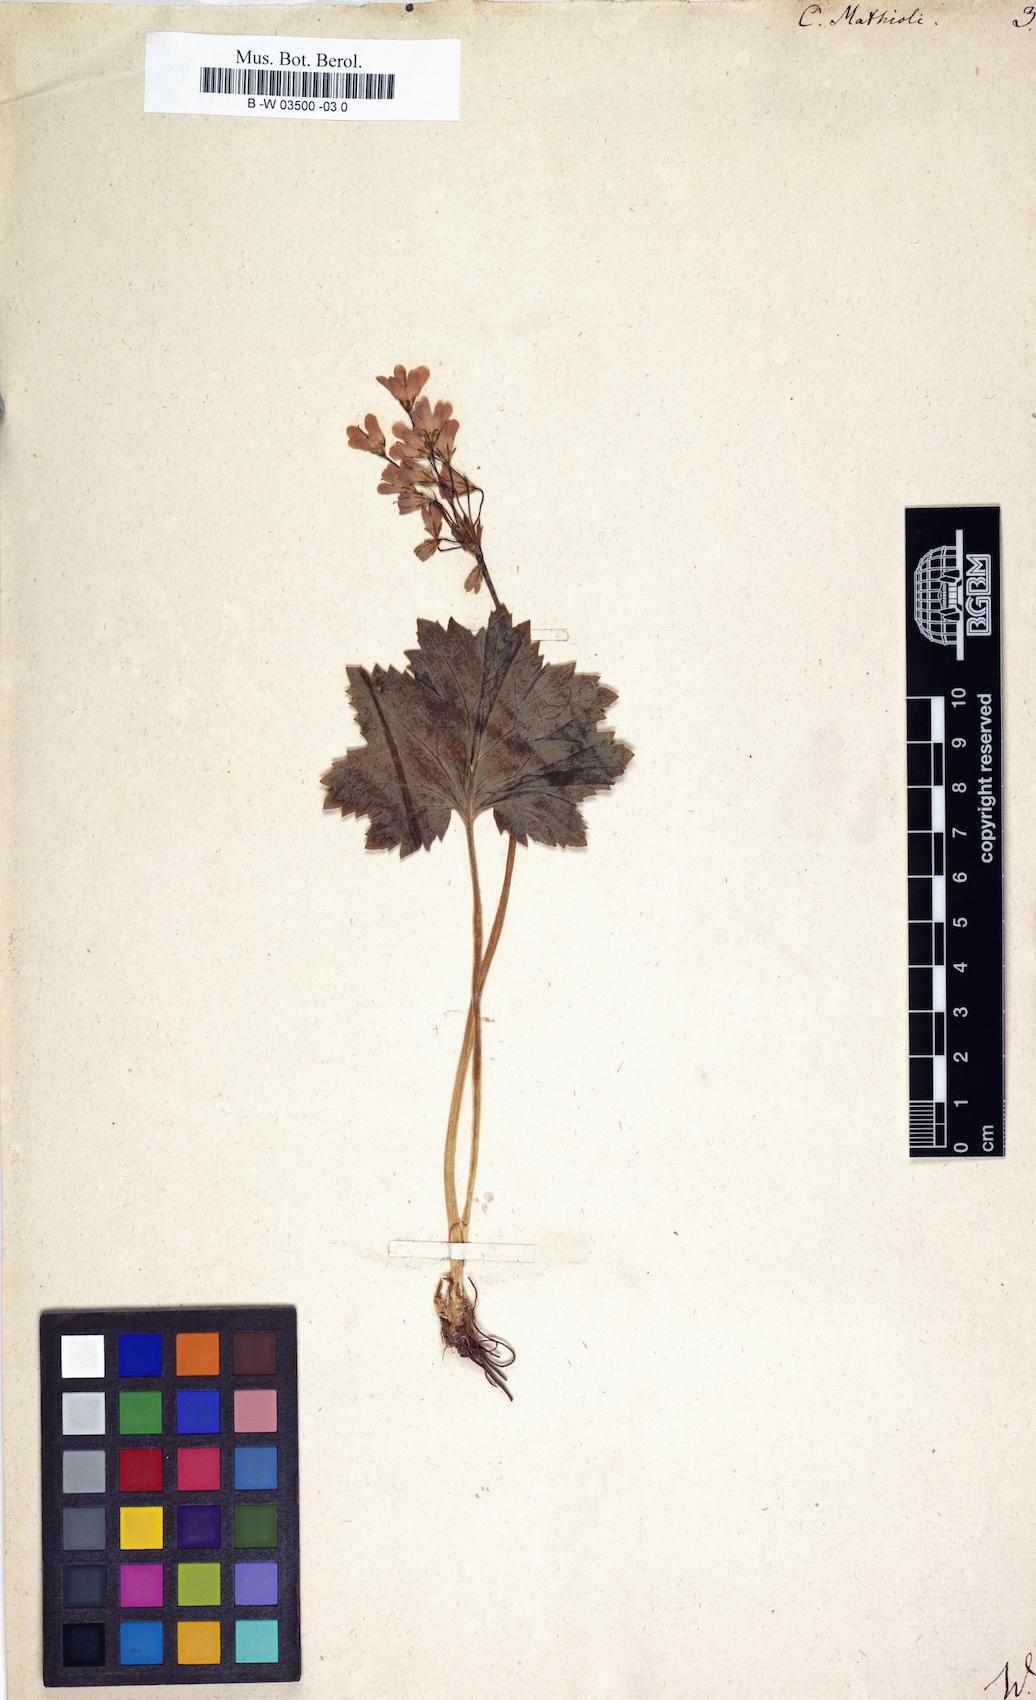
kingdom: Plantae
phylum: Tracheophyta
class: Magnoliopsida
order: Ericales
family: Primulaceae
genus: Primula
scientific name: Primula matthioli
